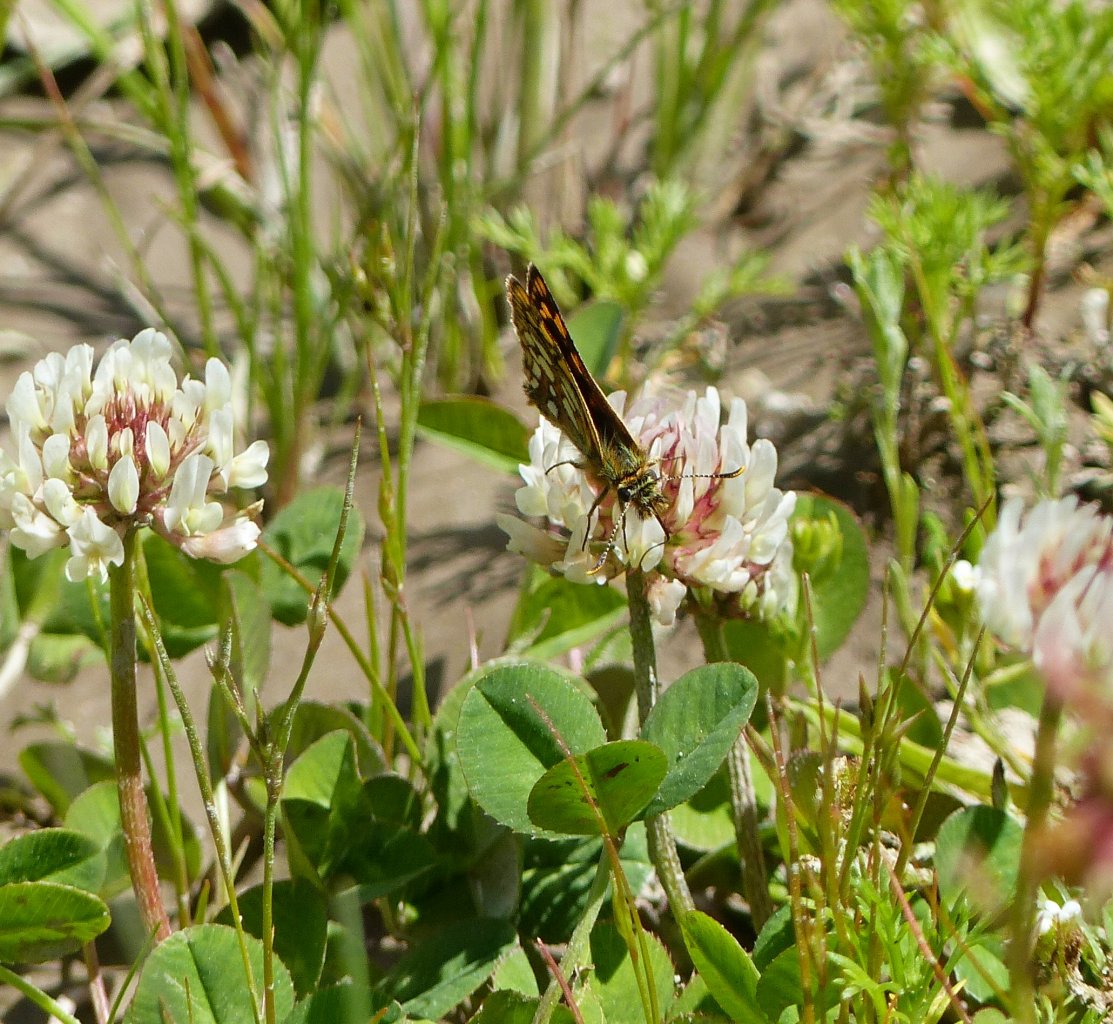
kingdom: Animalia
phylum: Arthropoda
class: Insecta
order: Lepidoptera
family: Hesperiidae
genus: Carterocephalus
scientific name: Carterocephalus palaemon
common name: Chequered Skipper
